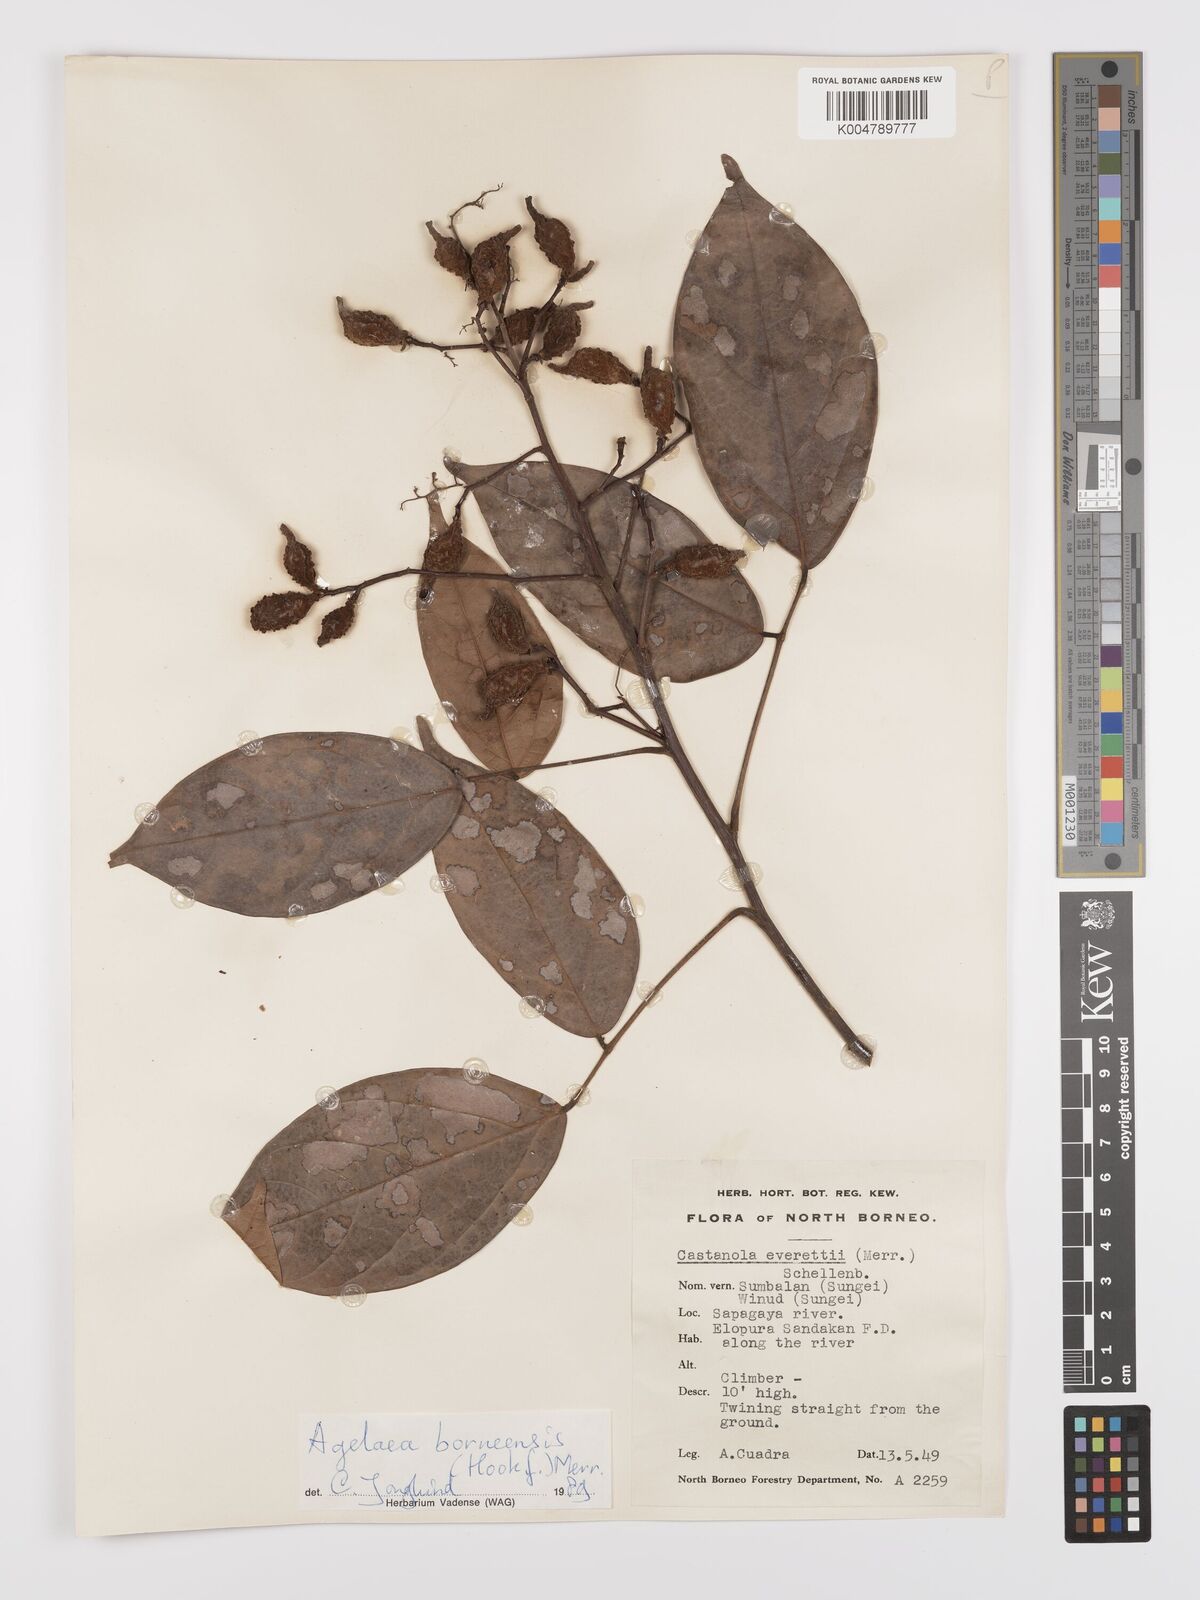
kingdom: Plantae
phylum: Tracheophyta
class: Magnoliopsida
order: Oxalidales
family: Connaraceae
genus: Agelaea
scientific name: Agelaea borneensis
